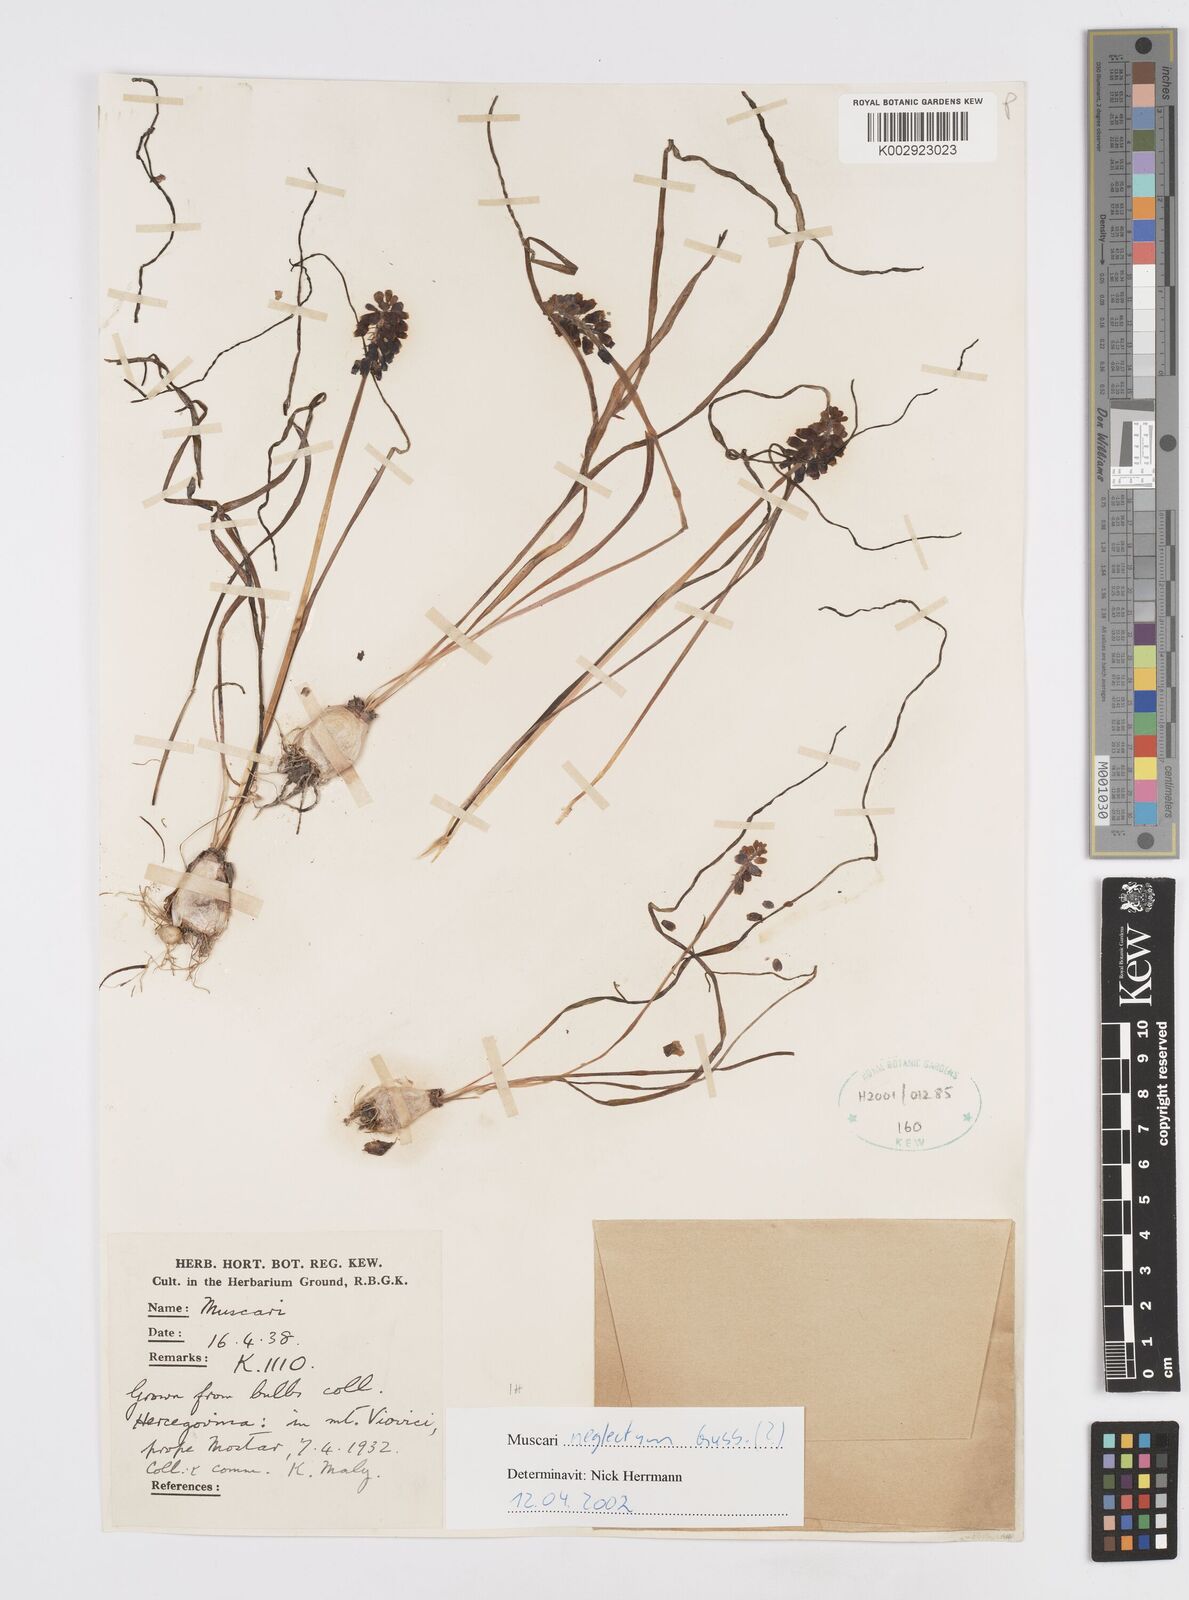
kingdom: Plantae
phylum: Tracheophyta
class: Liliopsida
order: Asparagales
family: Asparagaceae
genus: Muscarimia
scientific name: Muscarimia muscari
